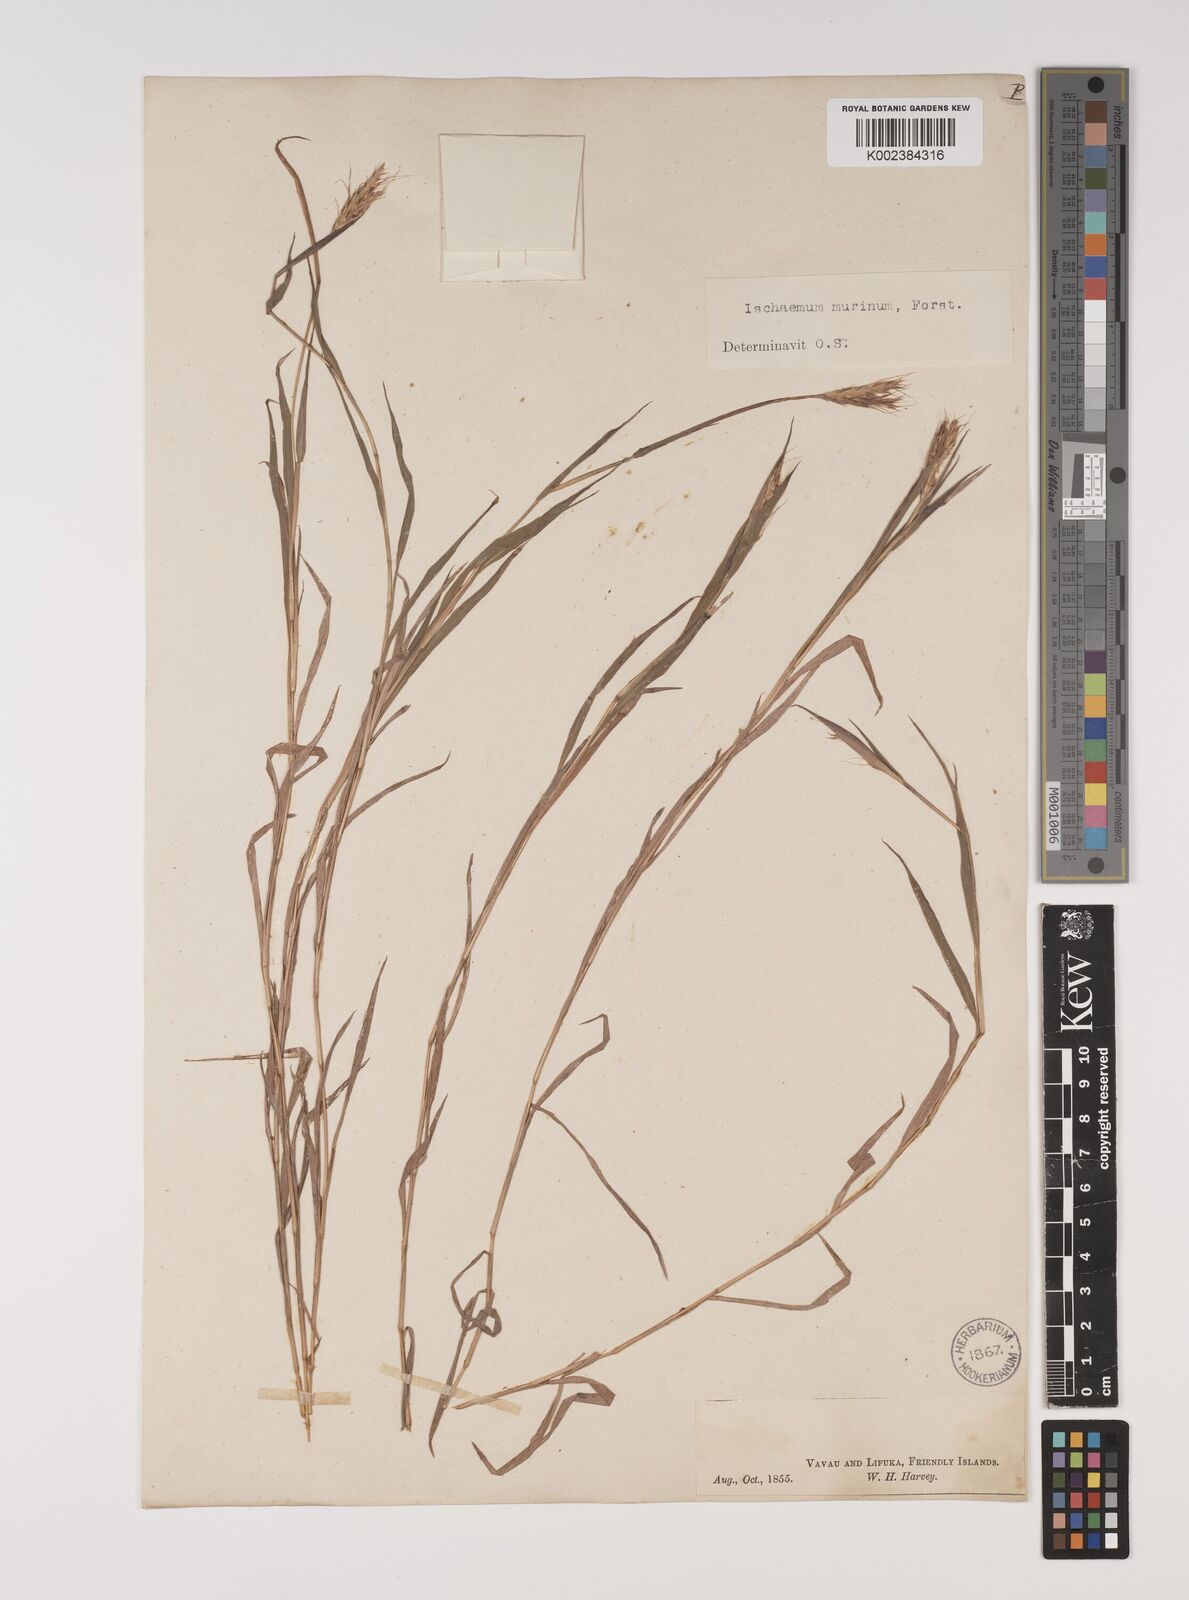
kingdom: Plantae
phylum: Tracheophyta
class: Liliopsida
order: Poales
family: Poaceae
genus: Ischaemum
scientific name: Ischaemum murinum
